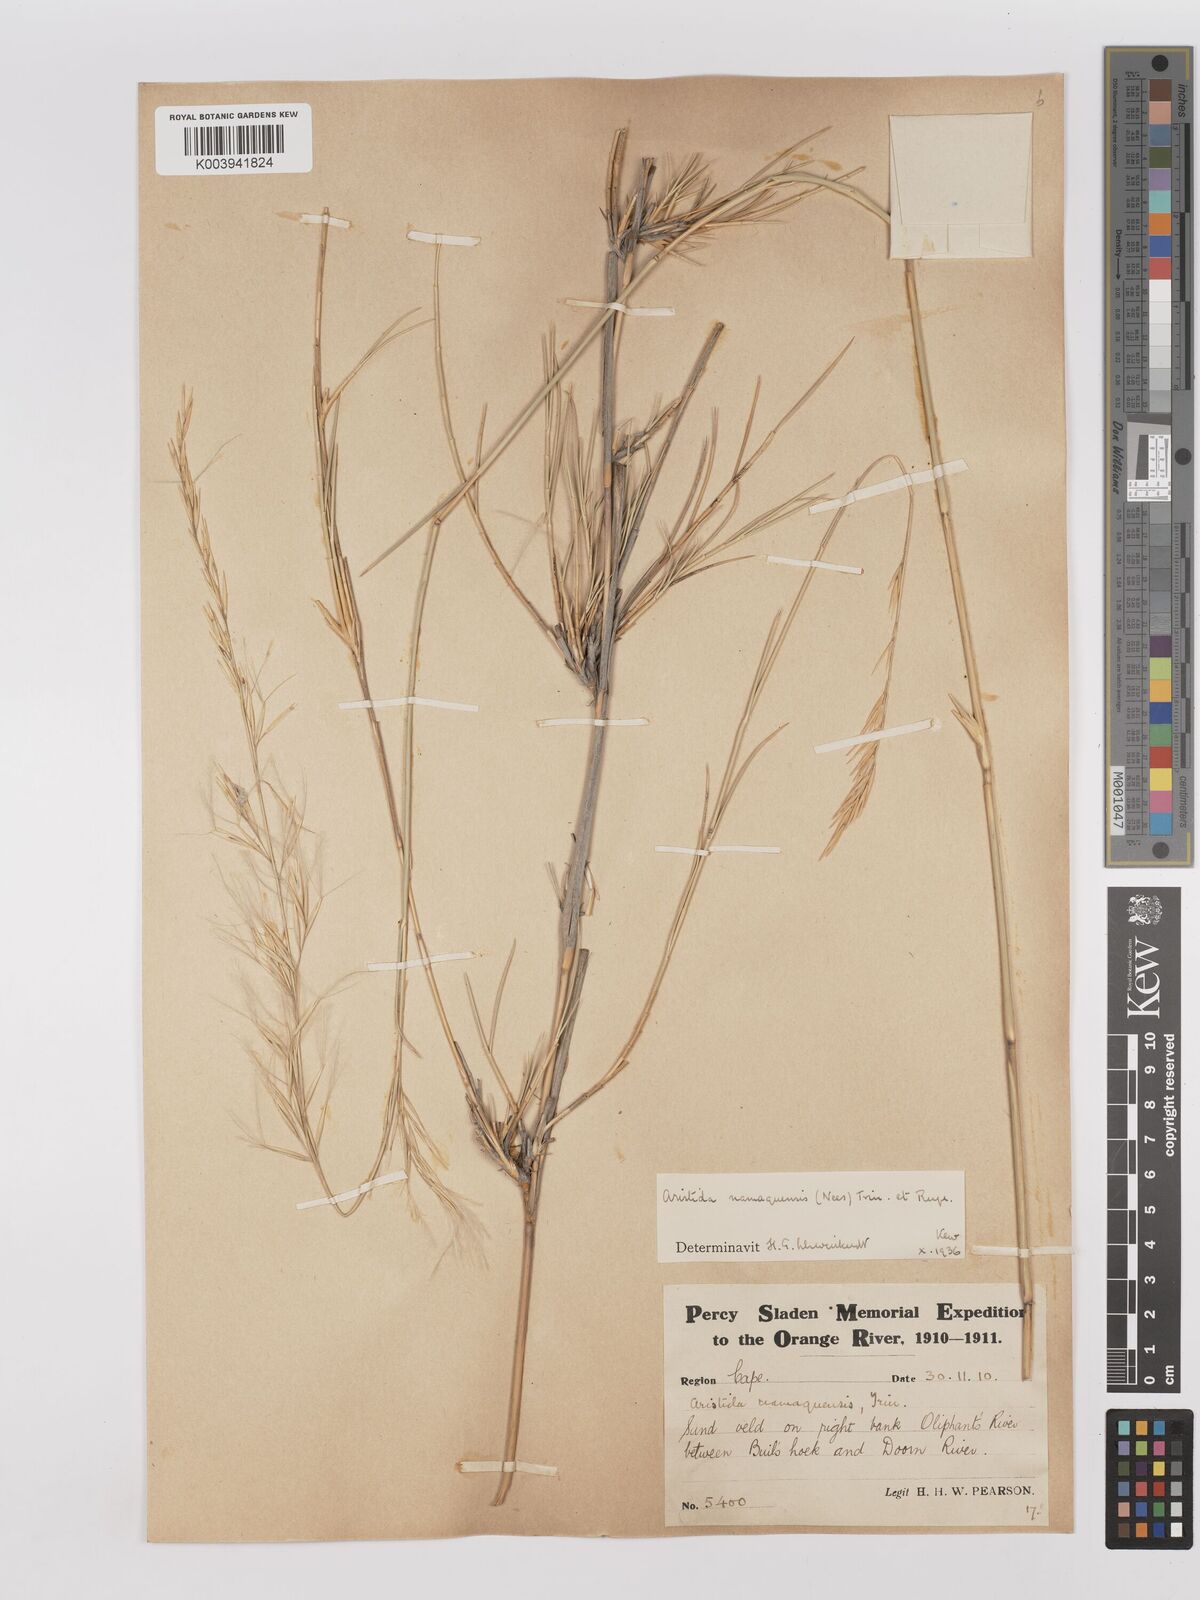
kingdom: Plantae
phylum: Tracheophyta
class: Liliopsida
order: Poales
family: Poaceae
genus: Stipagrostis
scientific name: Stipagrostis namaquensis
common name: River bushman grass
